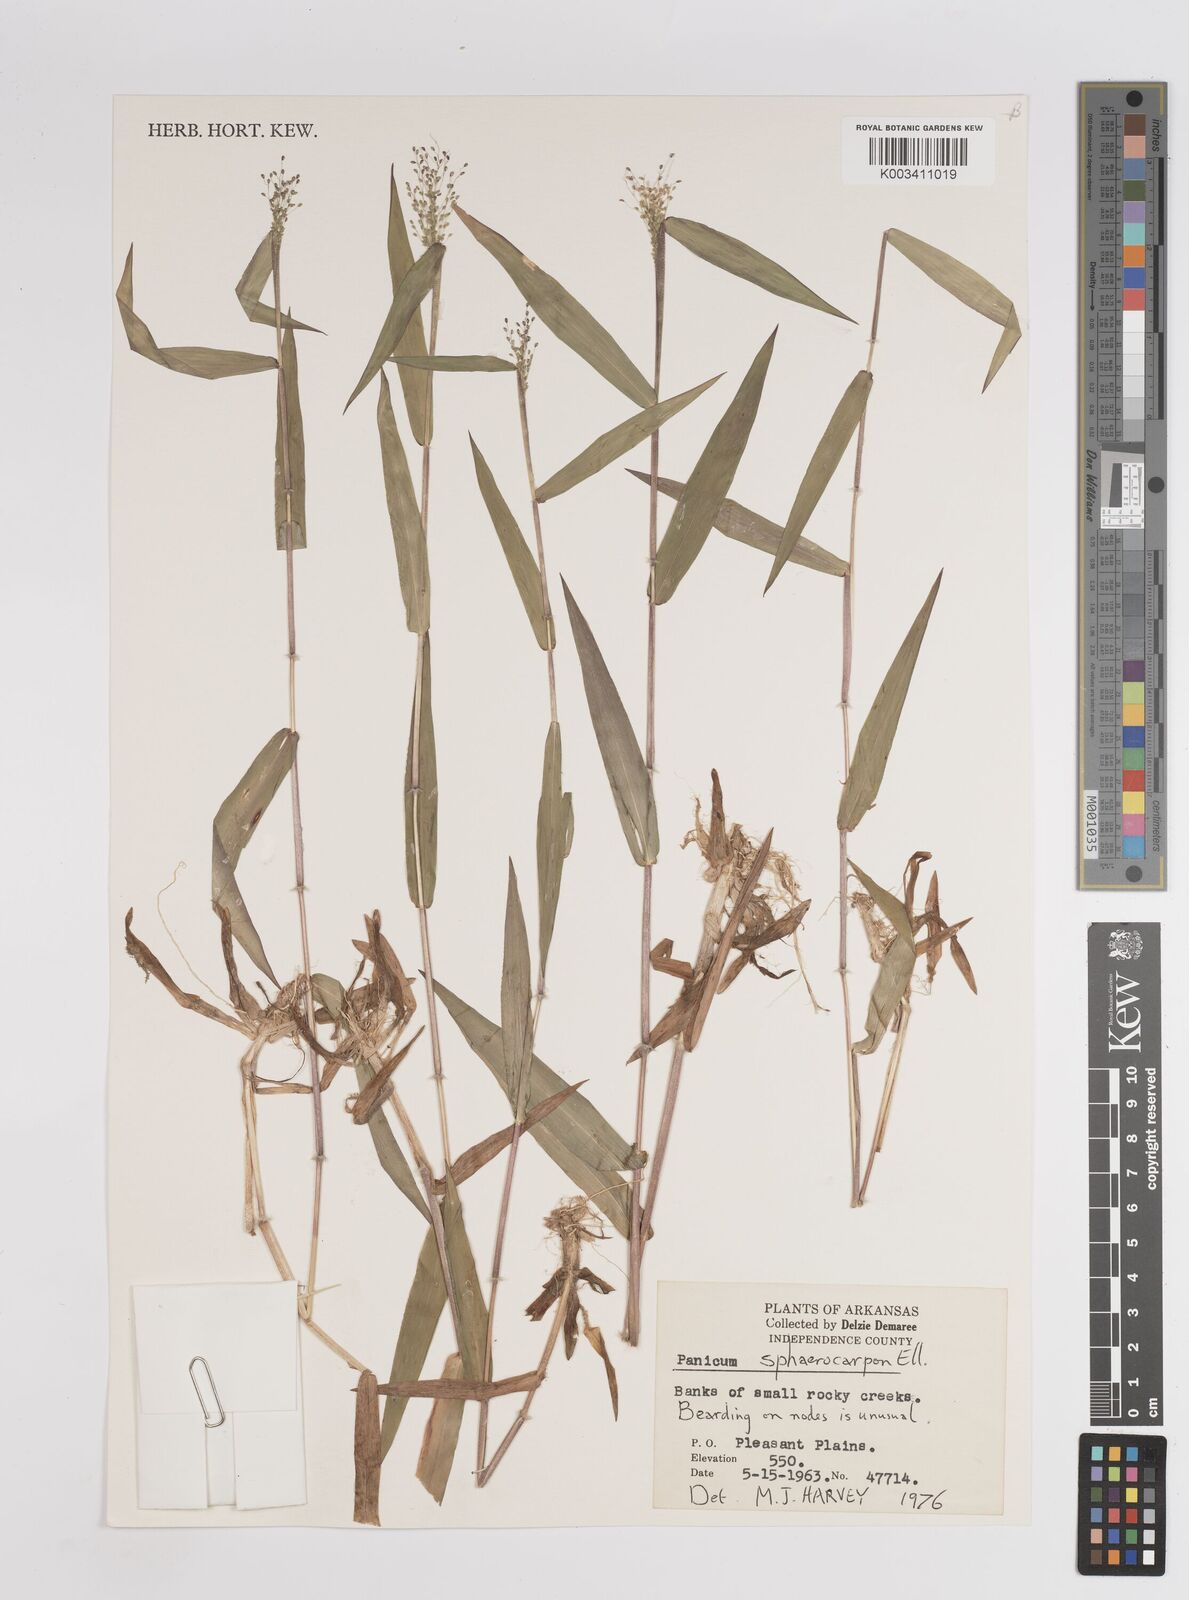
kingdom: Plantae
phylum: Tracheophyta
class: Liliopsida
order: Poales
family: Poaceae
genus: Setaria
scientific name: Setaria tenax
